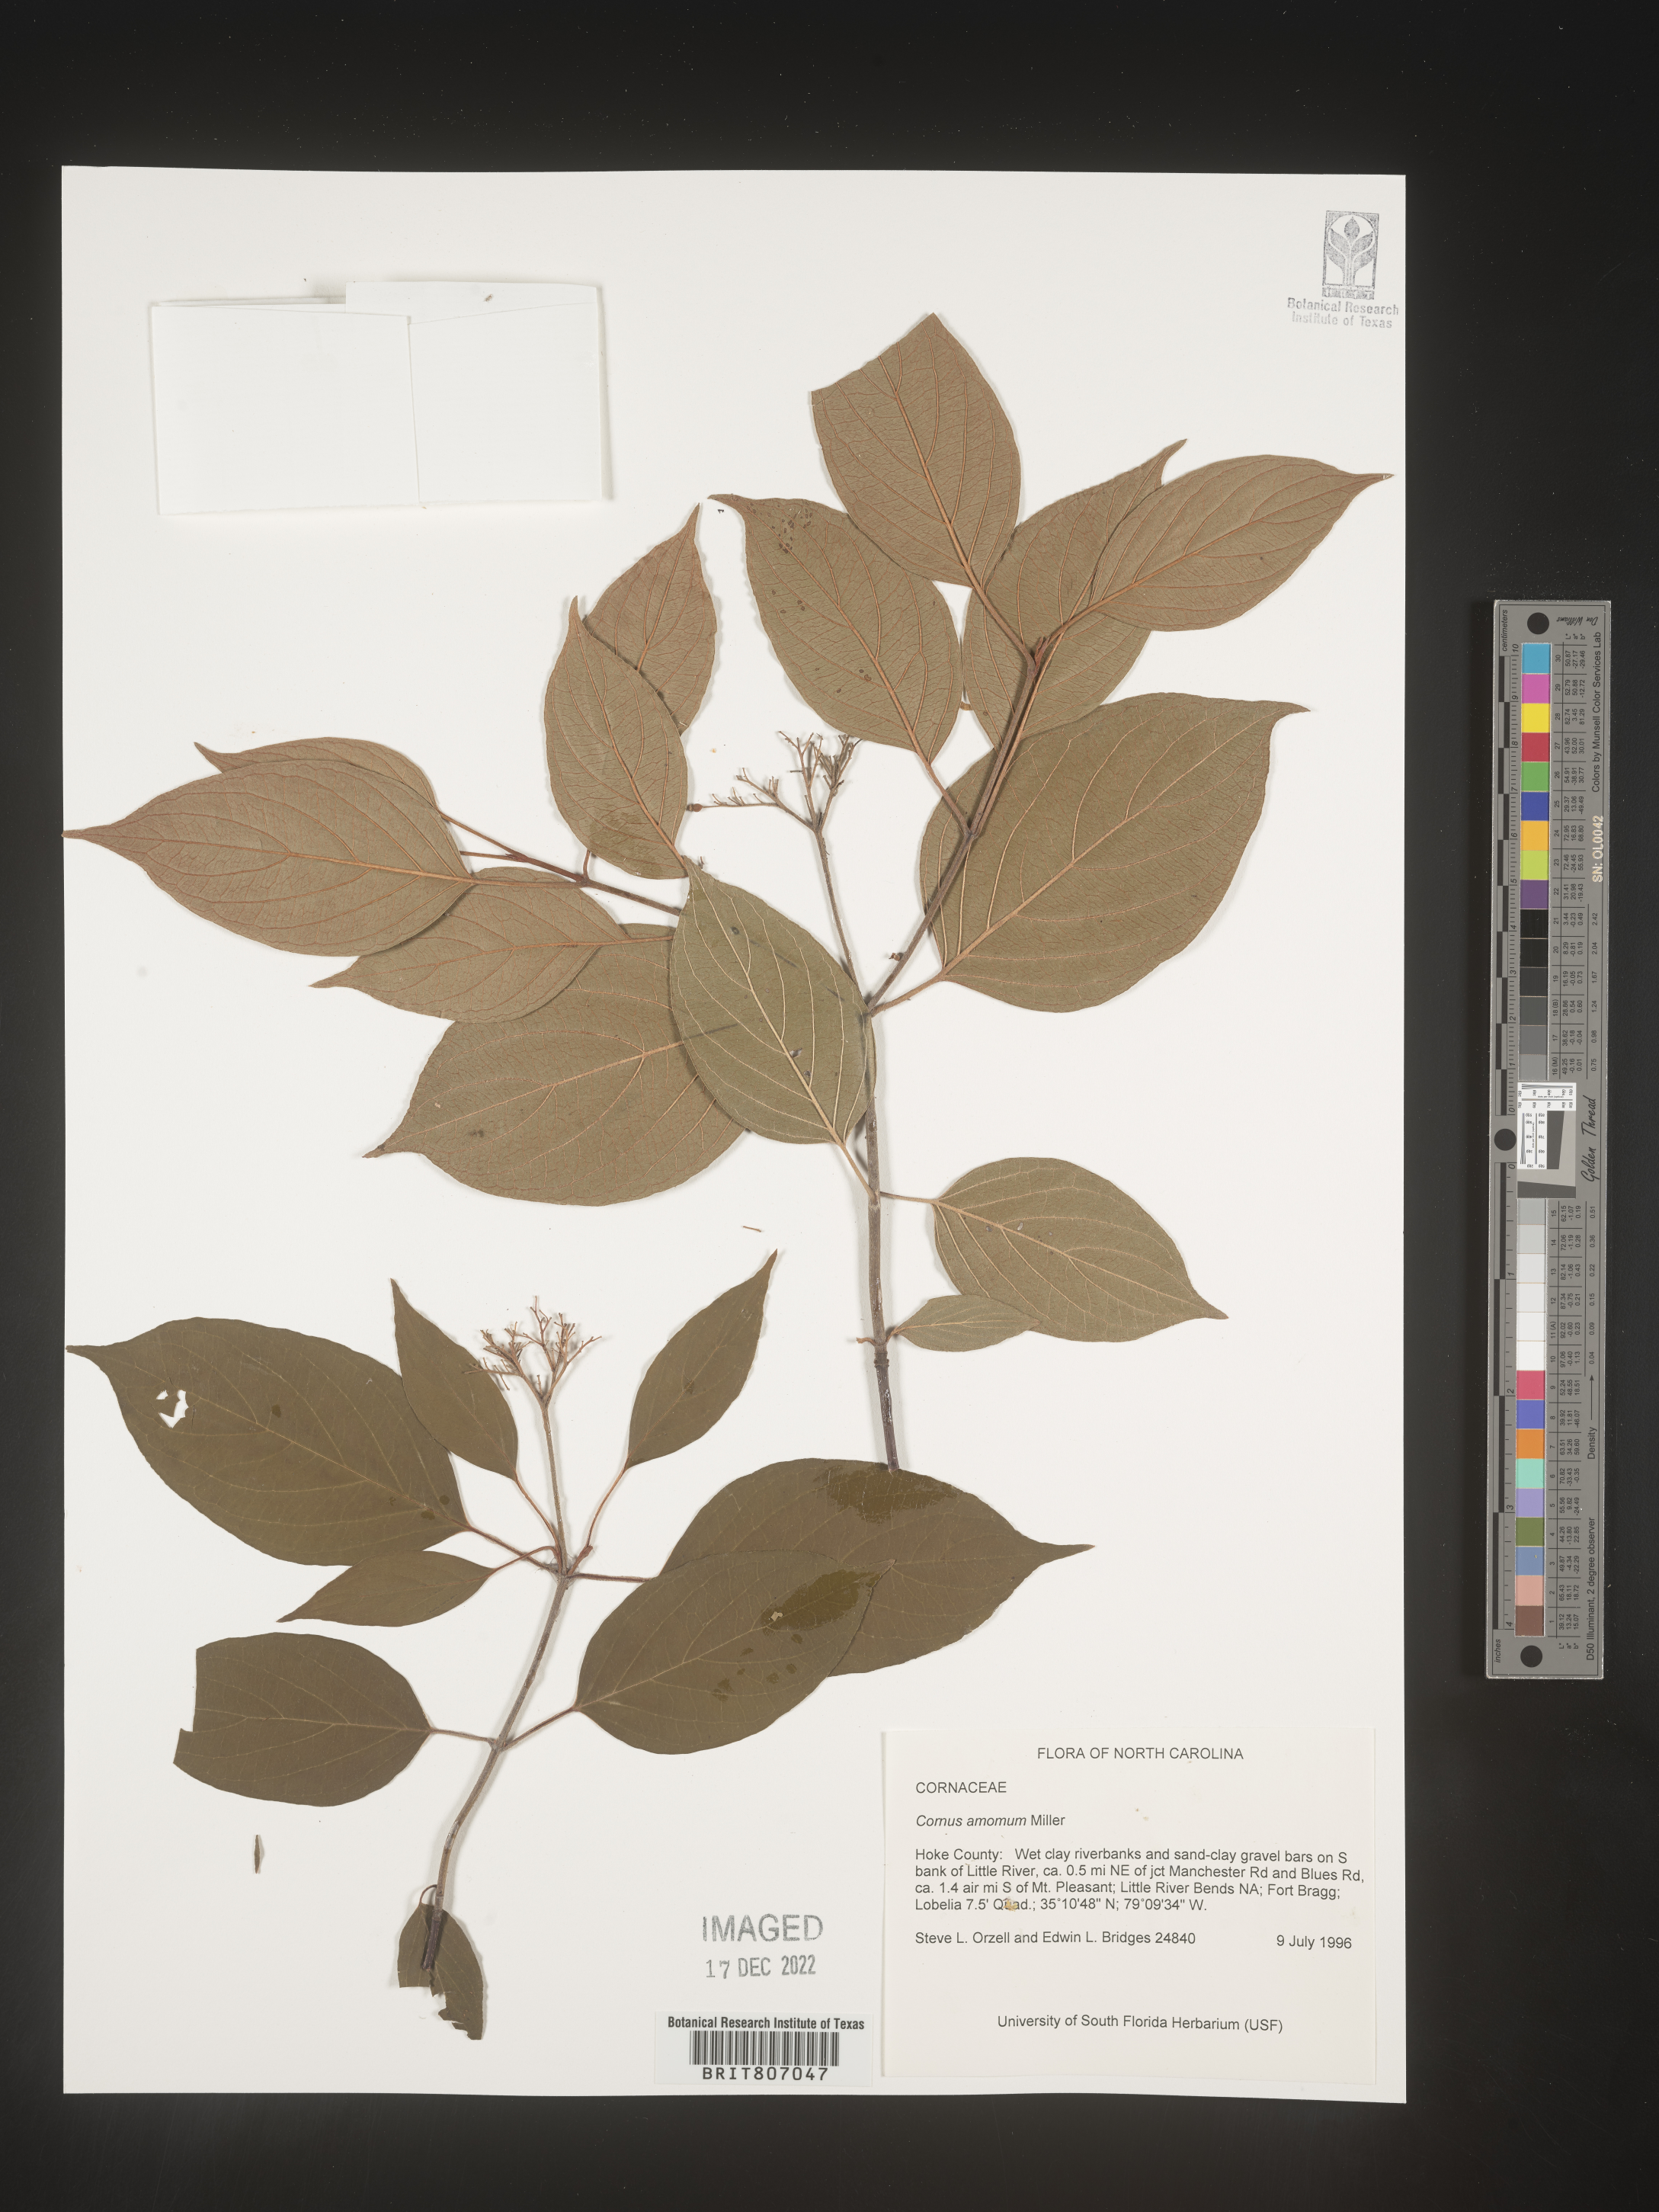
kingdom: Plantae
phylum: Tracheophyta
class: Magnoliopsida
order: Cornales
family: Cornaceae
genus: Cornus
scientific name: Cornus amomum
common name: Silky dogwood
